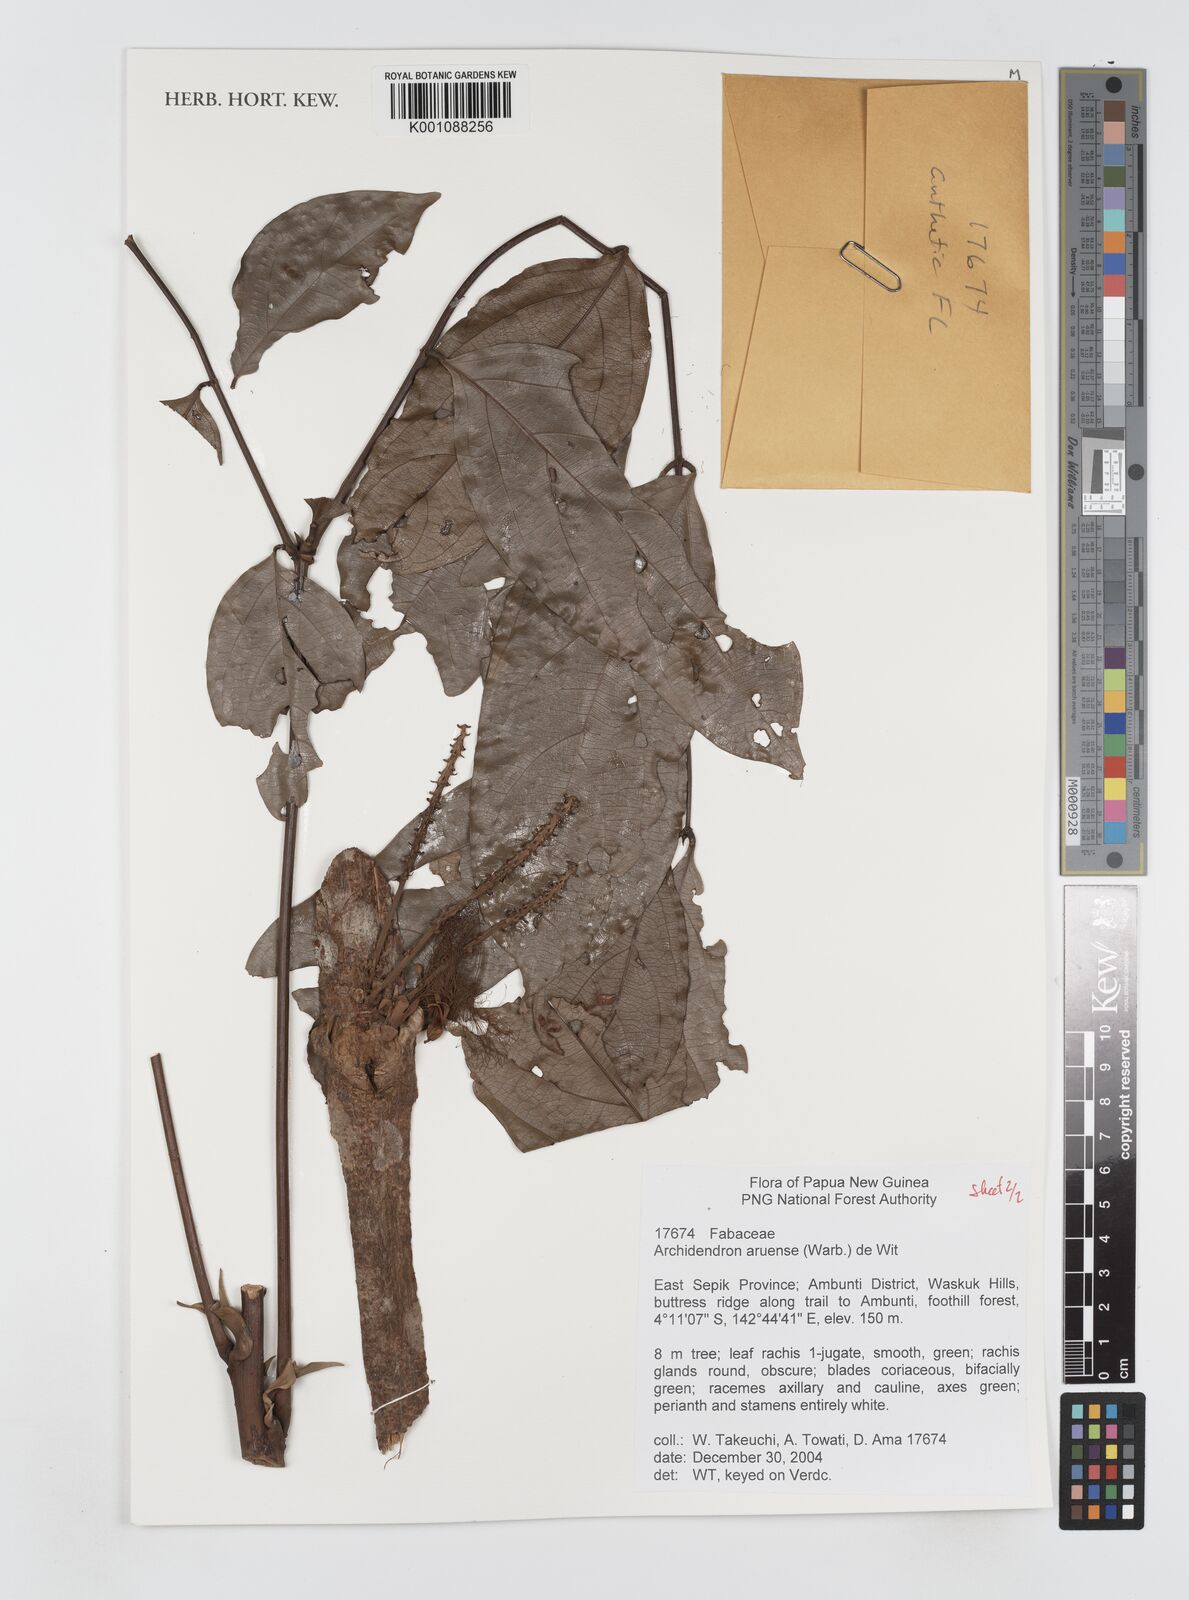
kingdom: Plantae
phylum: Tracheophyta
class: Magnoliopsida
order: Fabales
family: Fabaceae
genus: Archidendron
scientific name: Archidendron aruense
